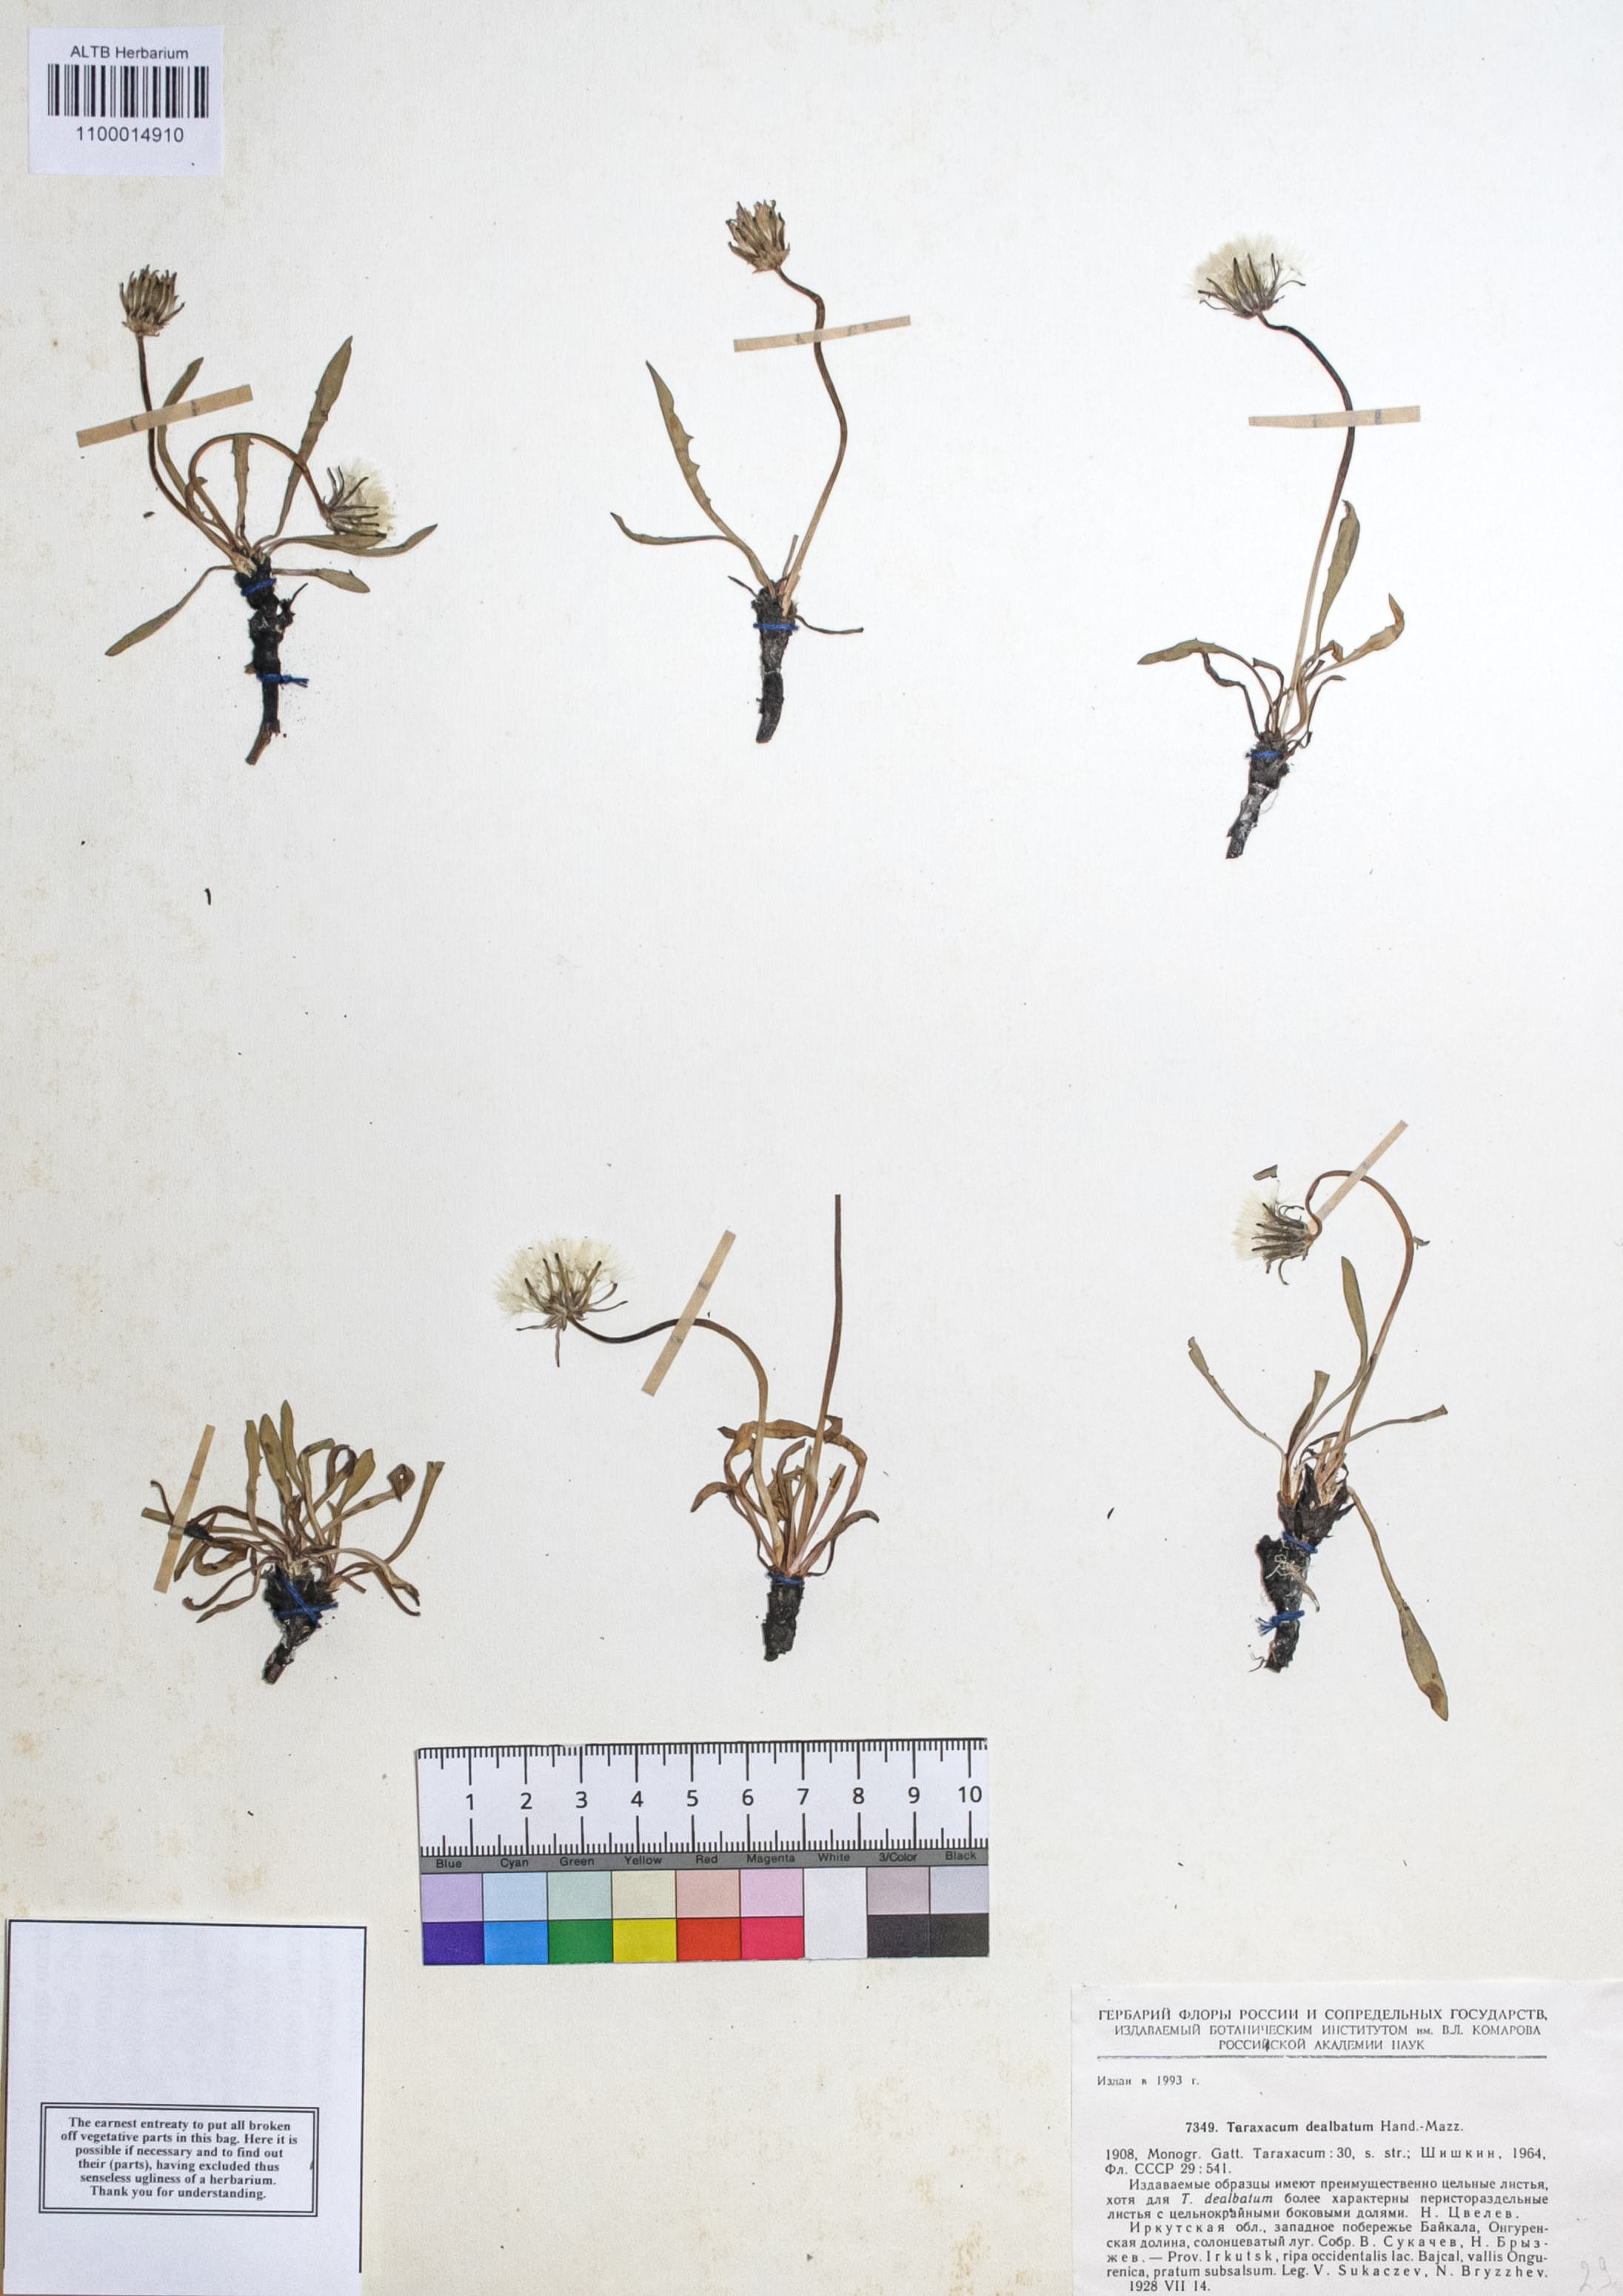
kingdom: Plantae
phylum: Tracheophyta
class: Magnoliopsida
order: Asterales
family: Asteraceae
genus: Taraxacum
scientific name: Taraxacum dealbatum
